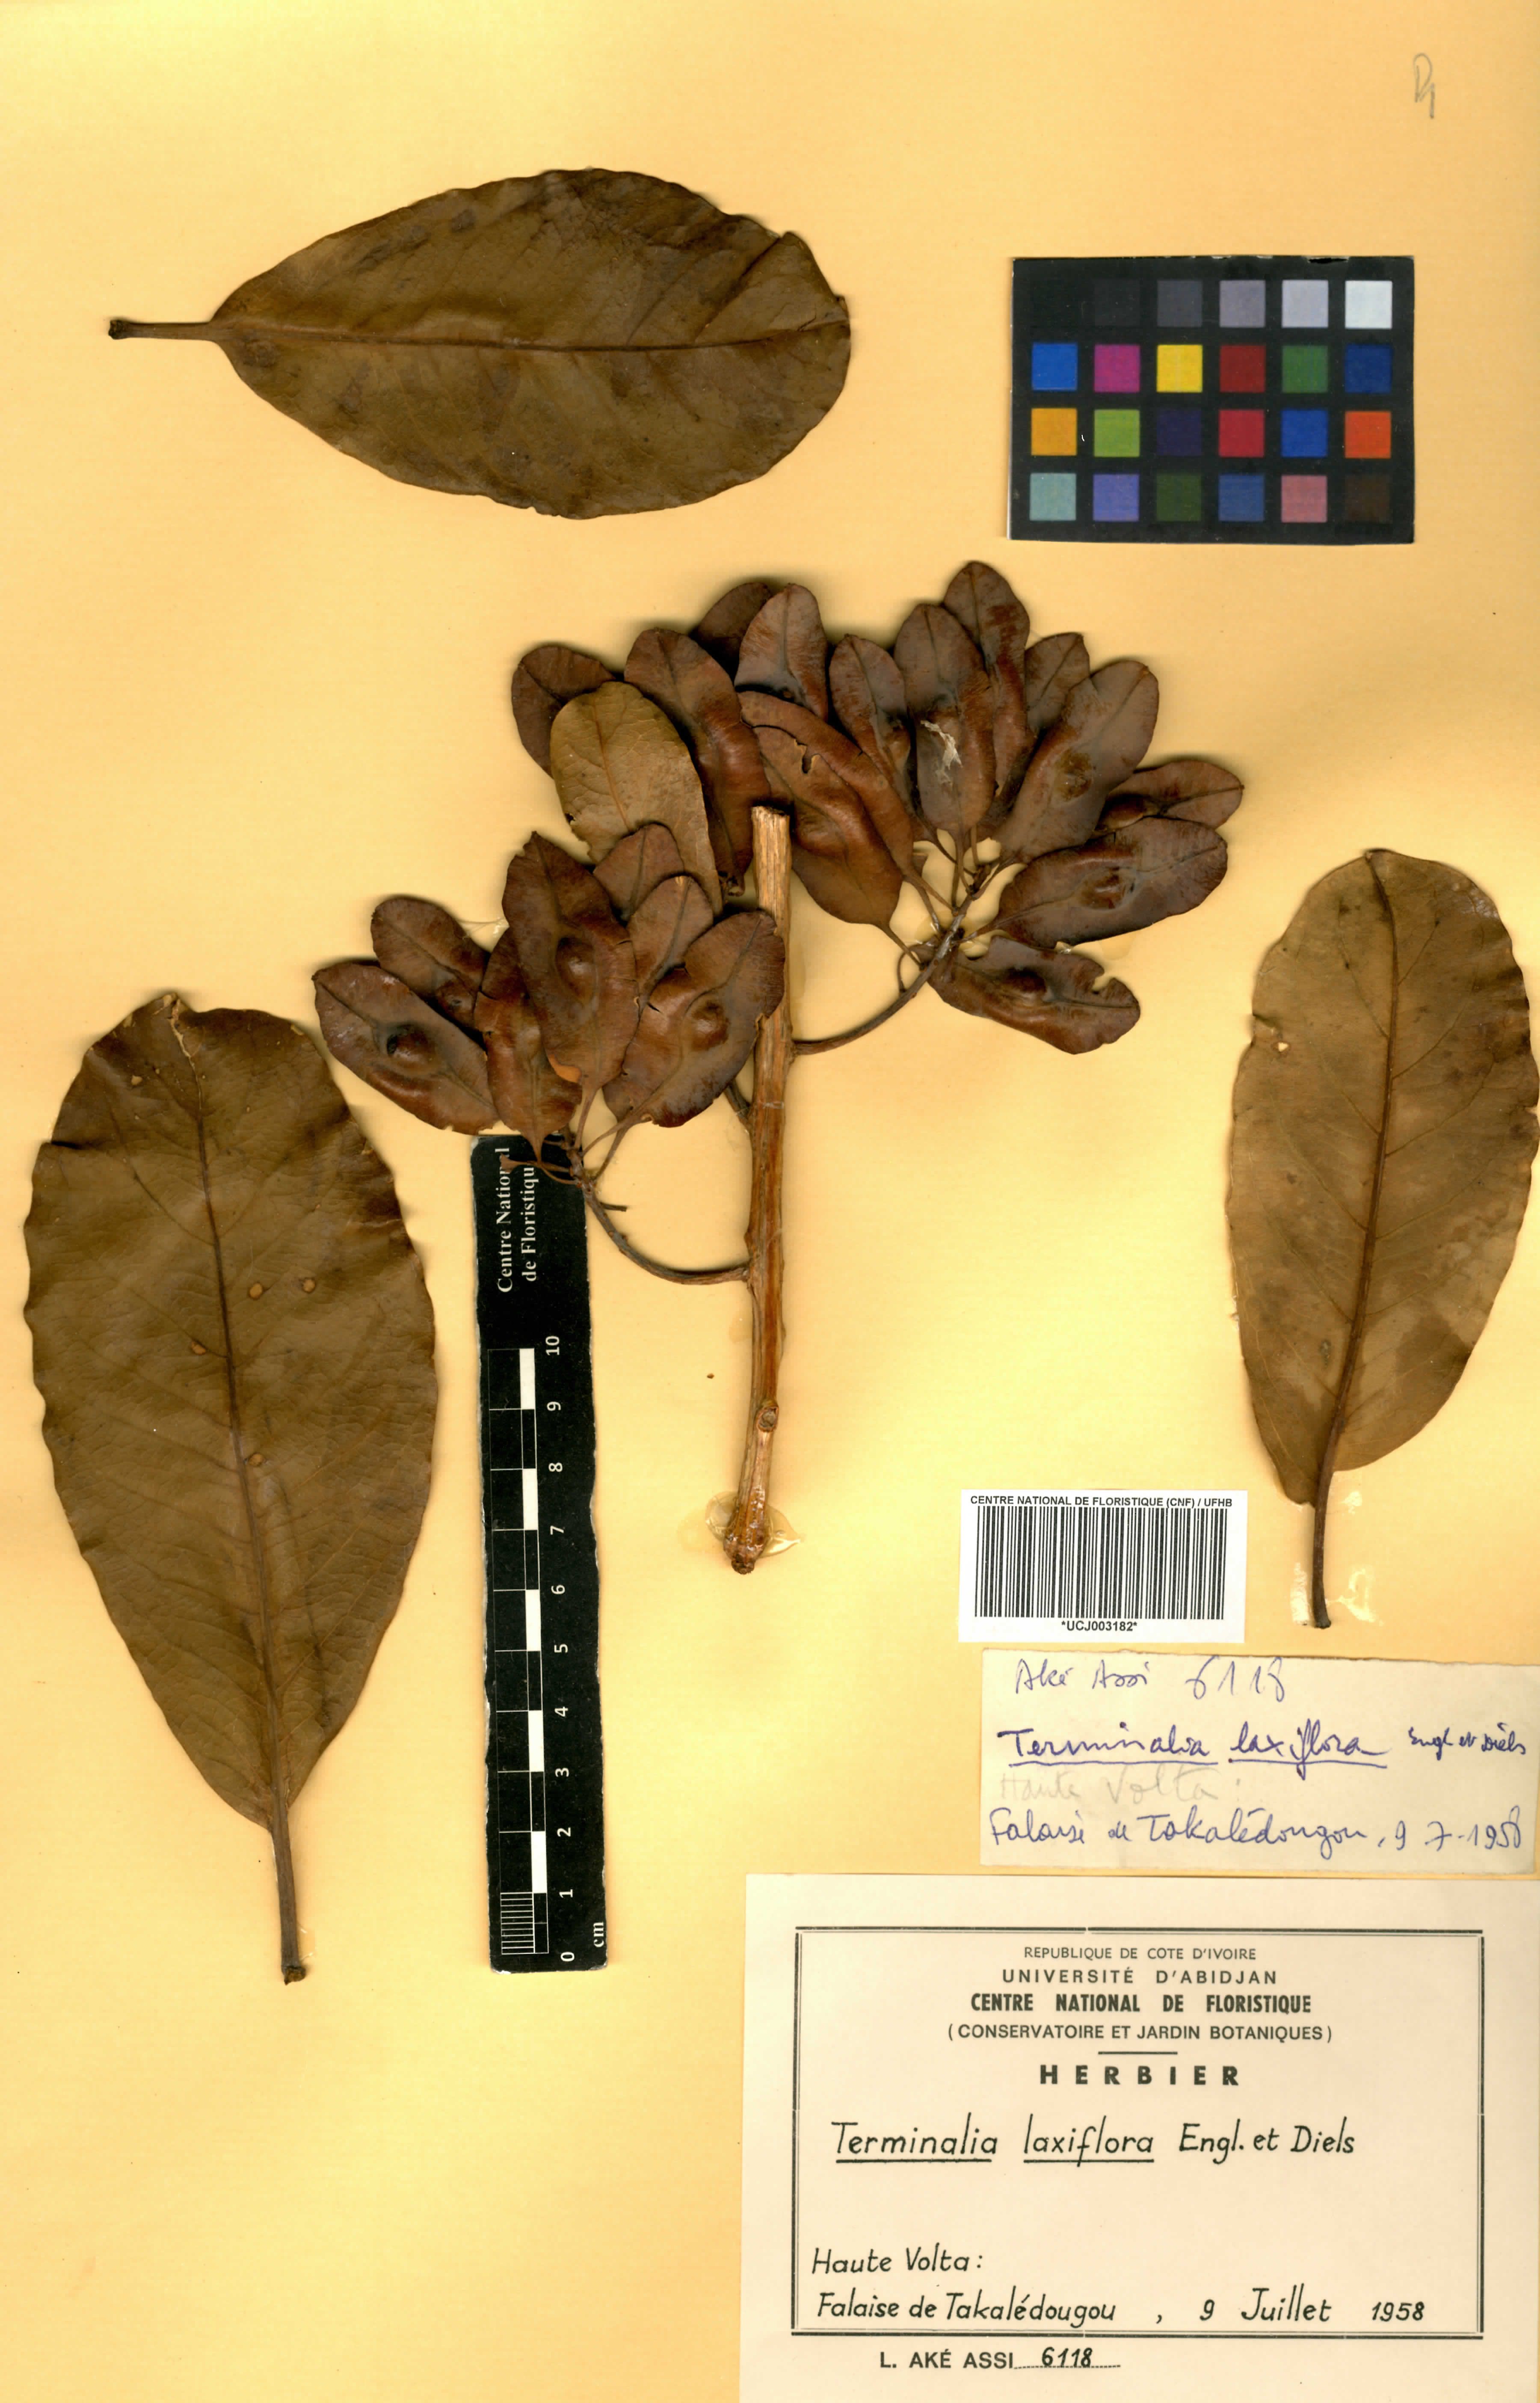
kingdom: Plantae
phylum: Tracheophyta
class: Magnoliopsida
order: Myrtales
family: Combretaceae
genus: Terminalia
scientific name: Terminalia laxiflora
